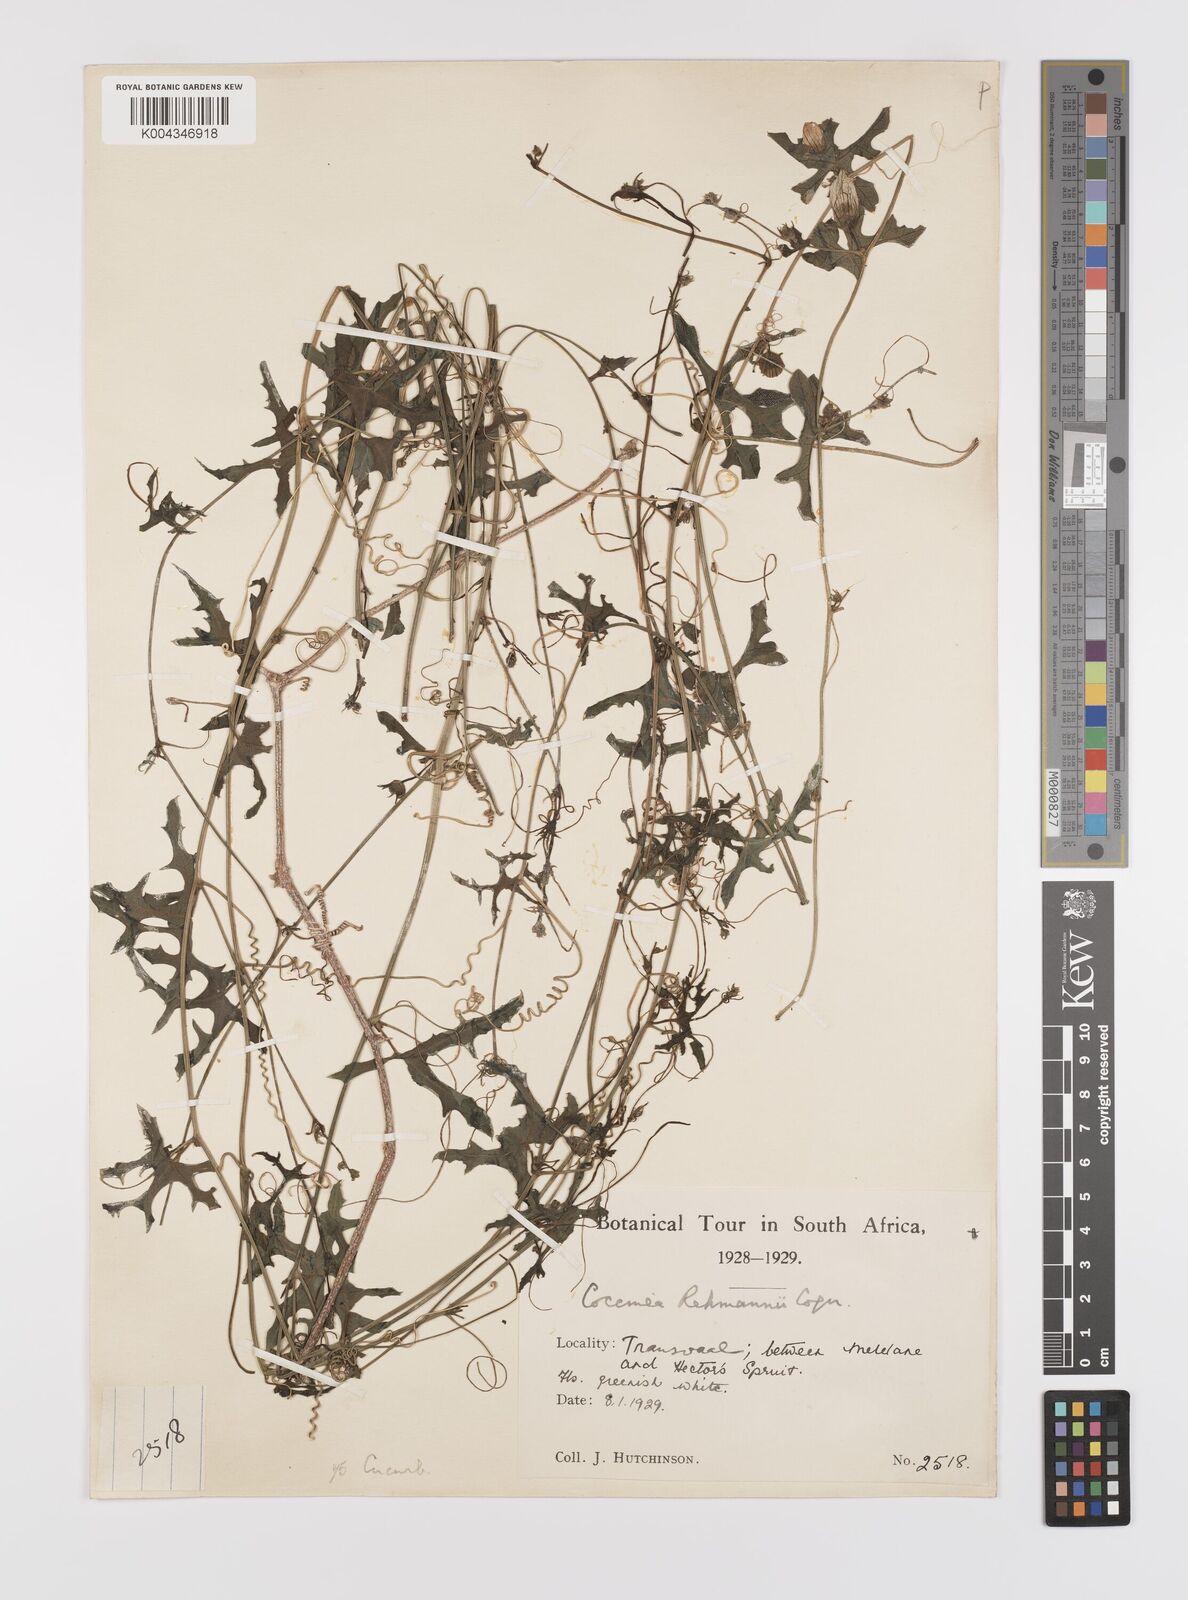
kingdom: Plantae
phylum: Tracheophyta
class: Magnoliopsida
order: Cucurbitales
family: Cucurbitaceae
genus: Coccinia
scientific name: Coccinia rehmannii
